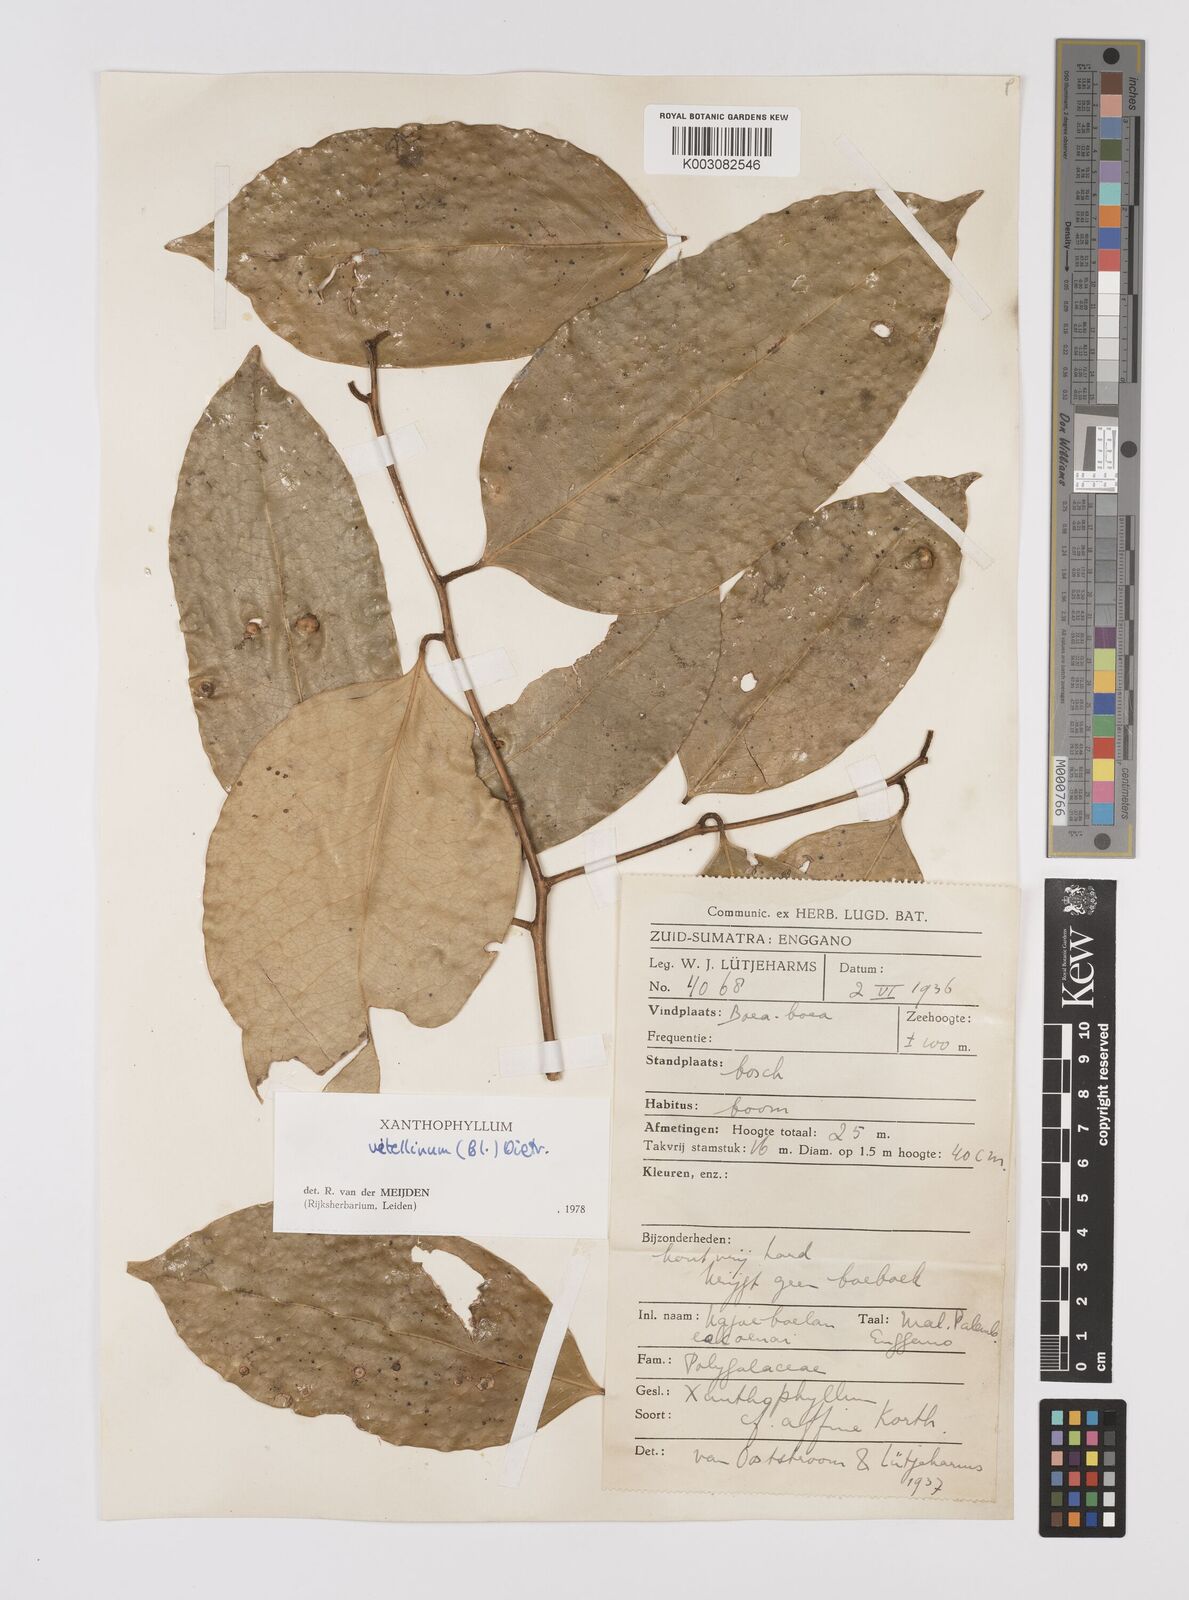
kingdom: Plantae
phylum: Tracheophyta
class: Magnoliopsida
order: Fabales
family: Polygalaceae
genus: Xanthophyllum
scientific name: Xanthophyllum vitellinum
